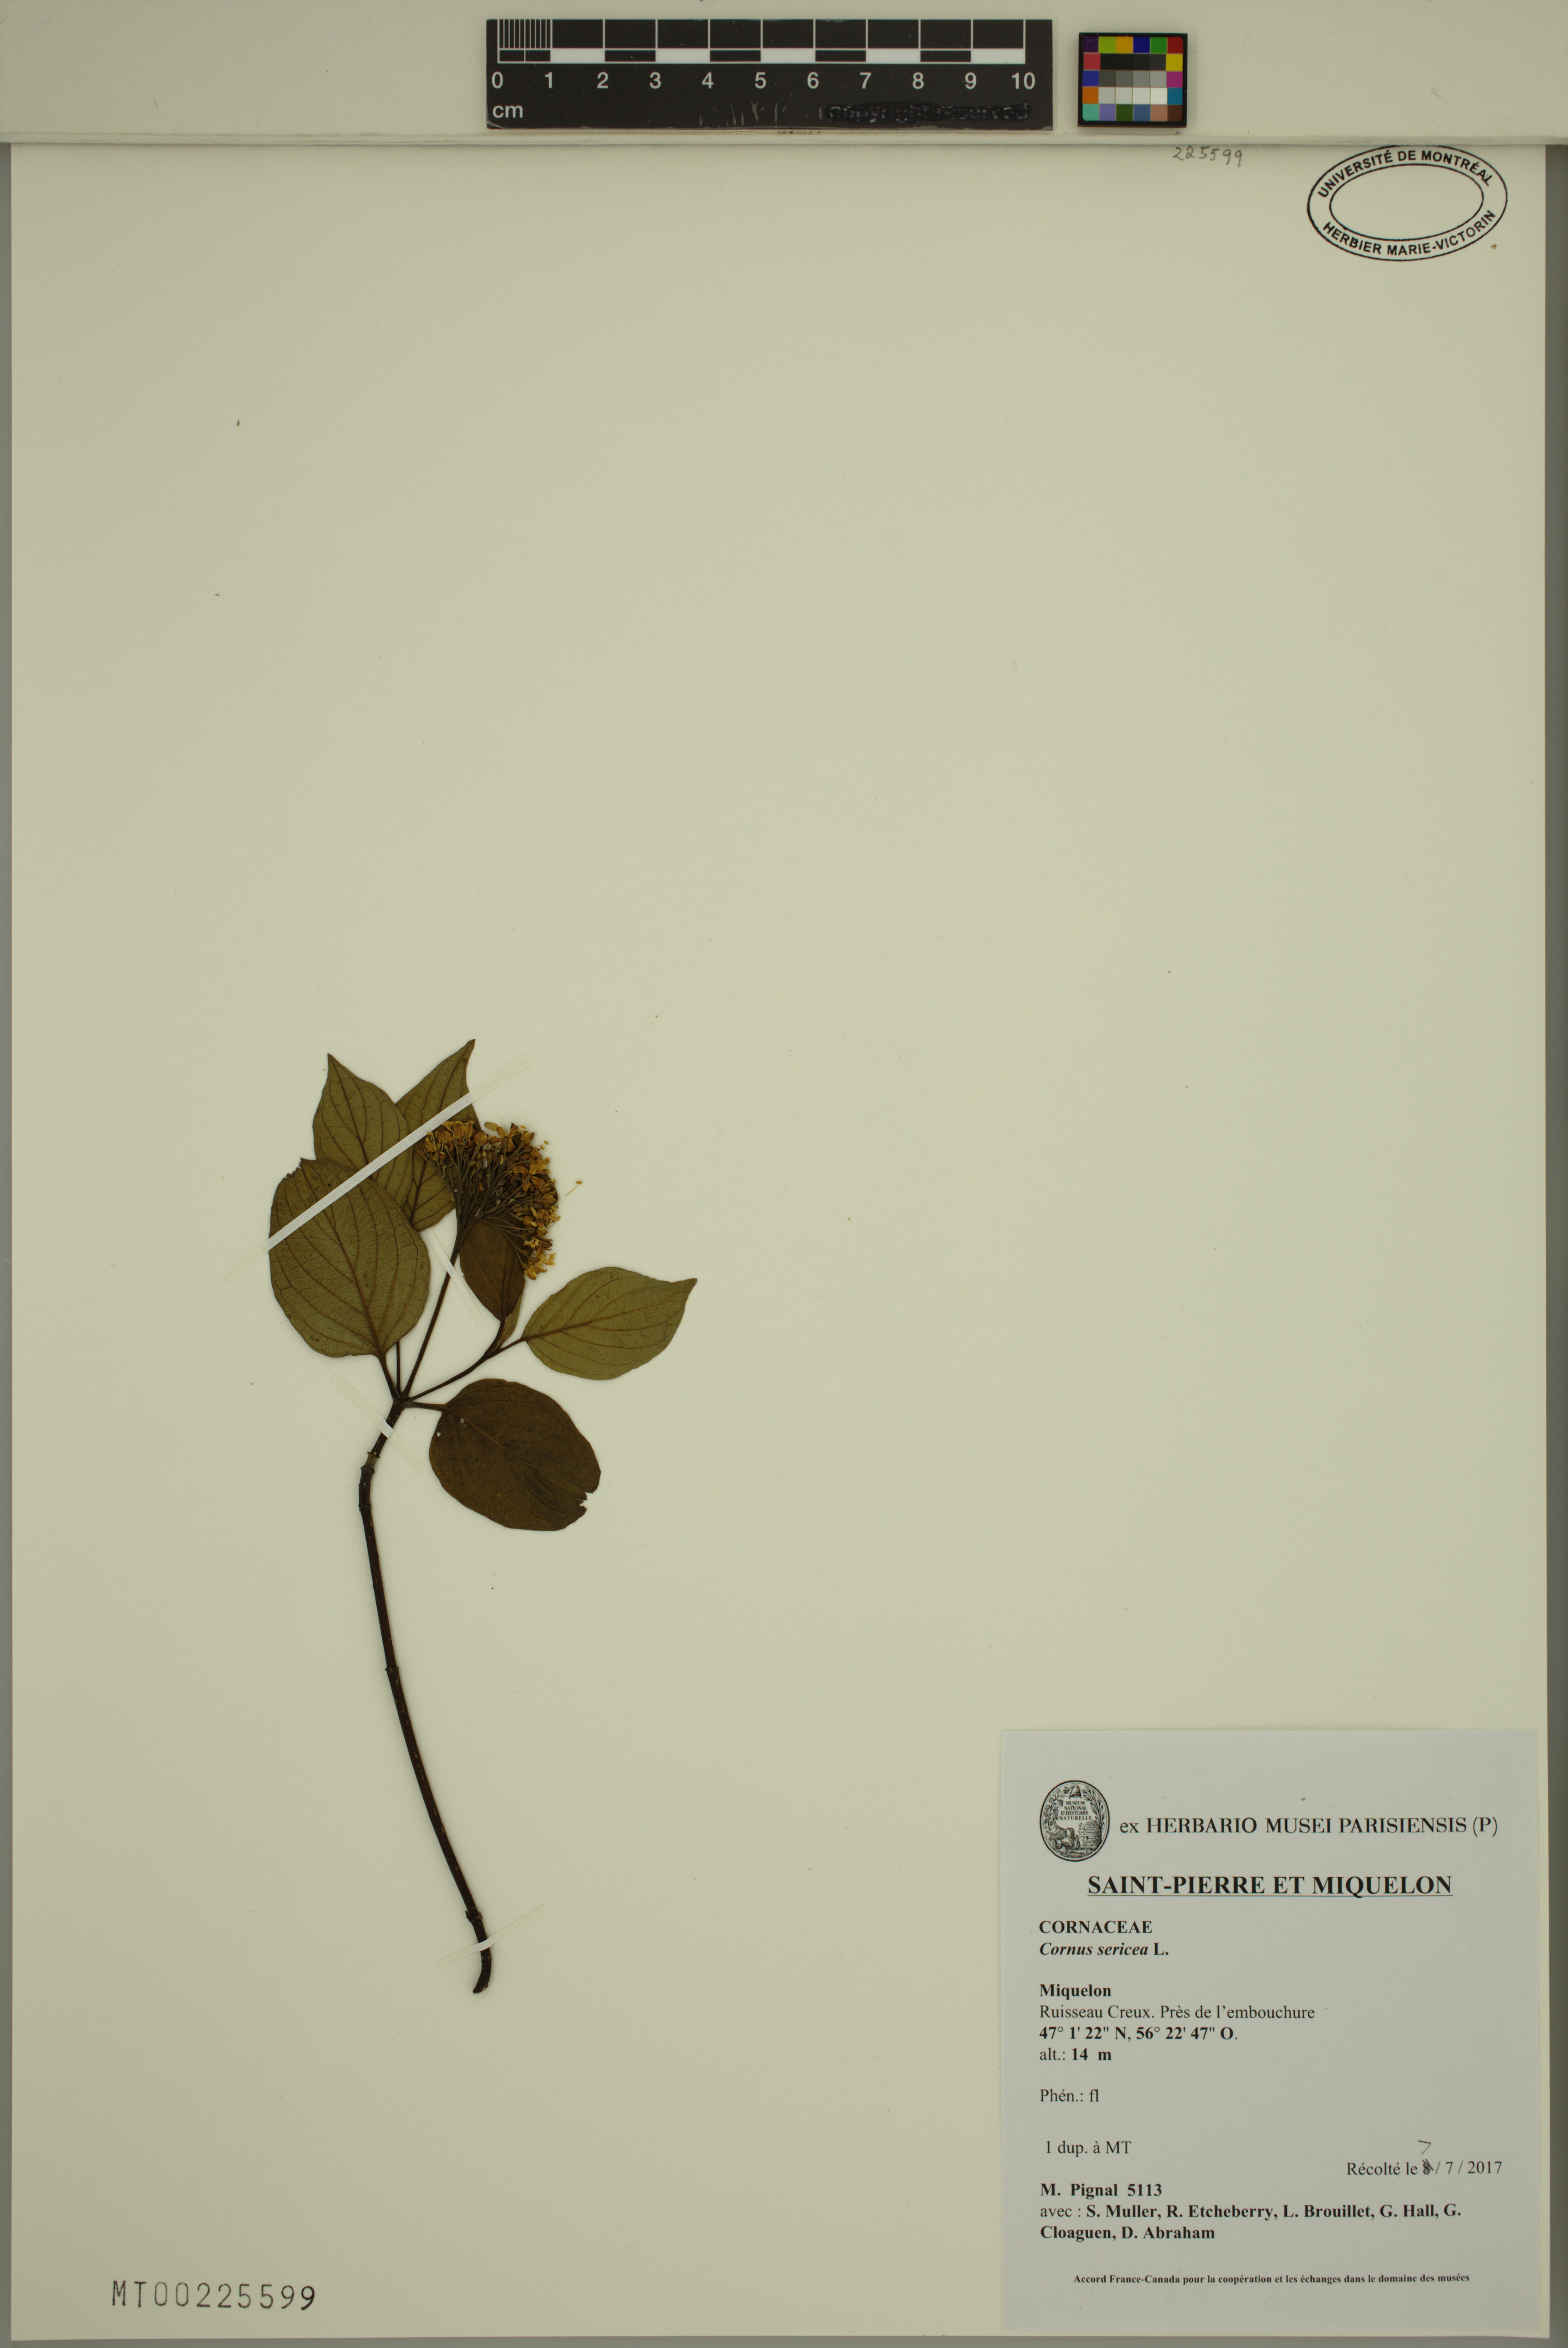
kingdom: Plantae
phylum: Tracheophyta
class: Magnoliopsida
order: Cornales
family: Cornaceae
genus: Cornus
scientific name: Cornus sericea
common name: Red-osier dogwood
